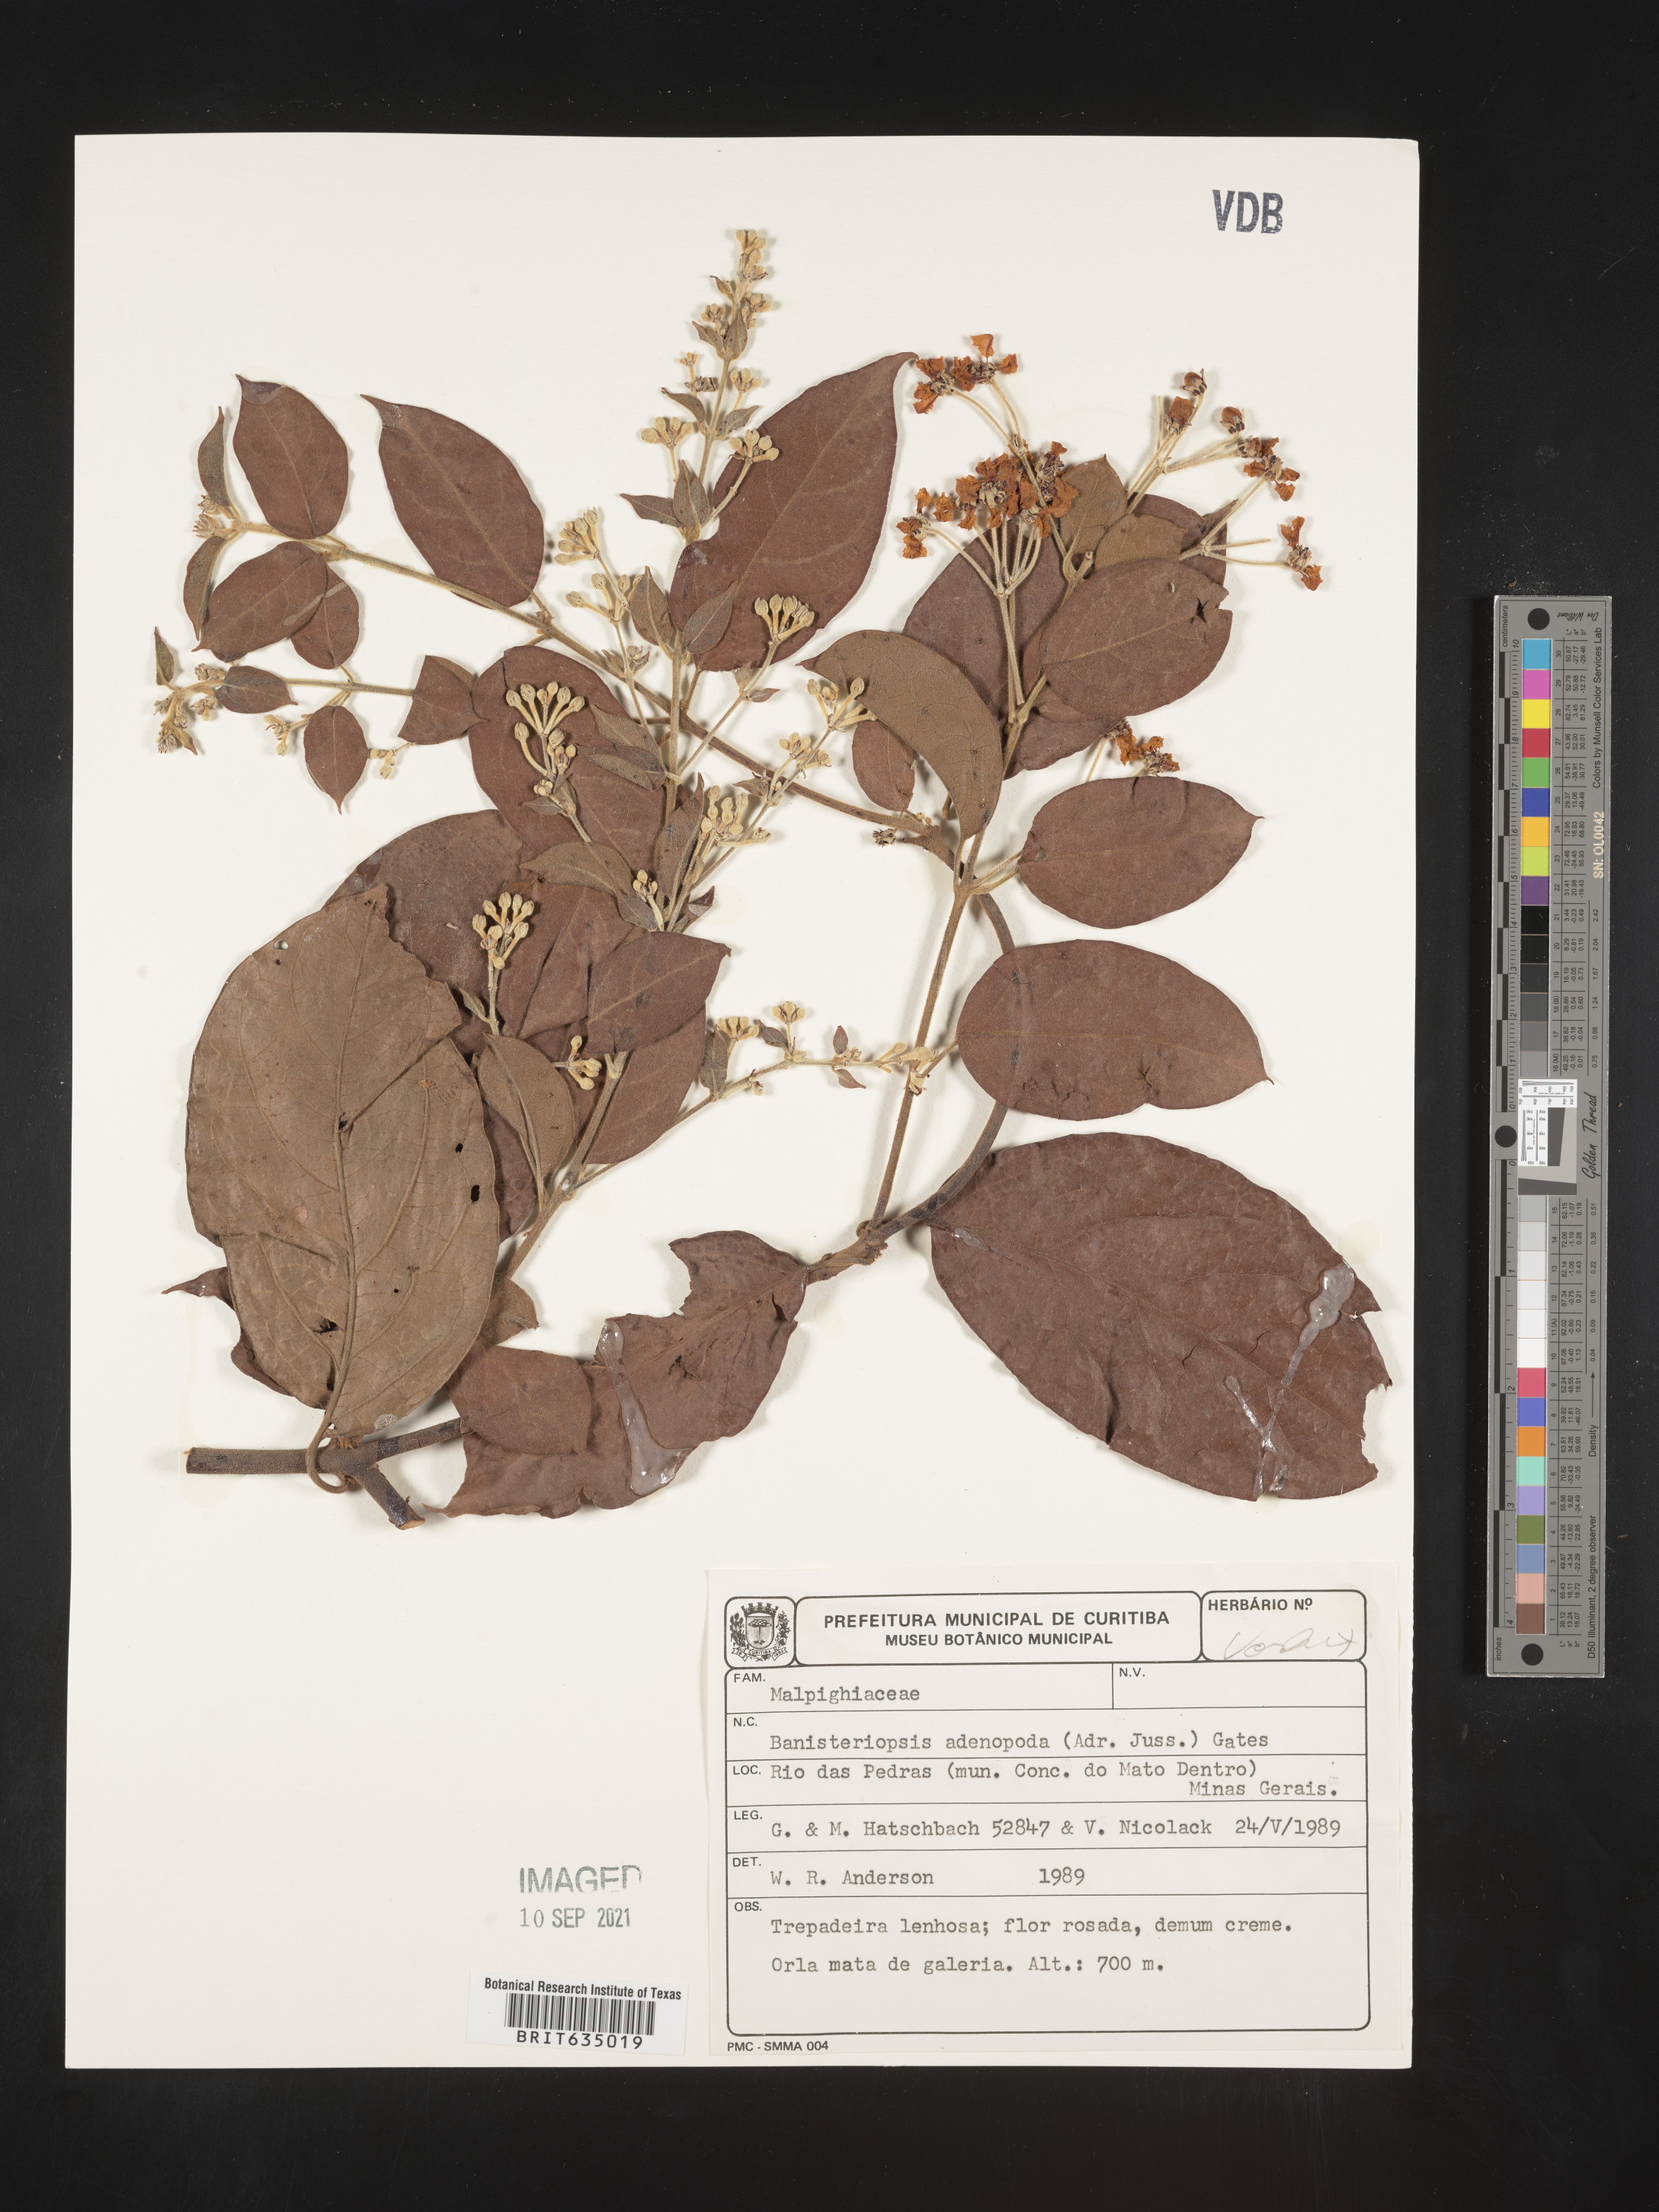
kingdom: Plantae
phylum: Tracheophyta
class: Magnoliopsida
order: Malpighiales
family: Malpighiaceae
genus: Banisteriopsis
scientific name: Banisteriopsis
